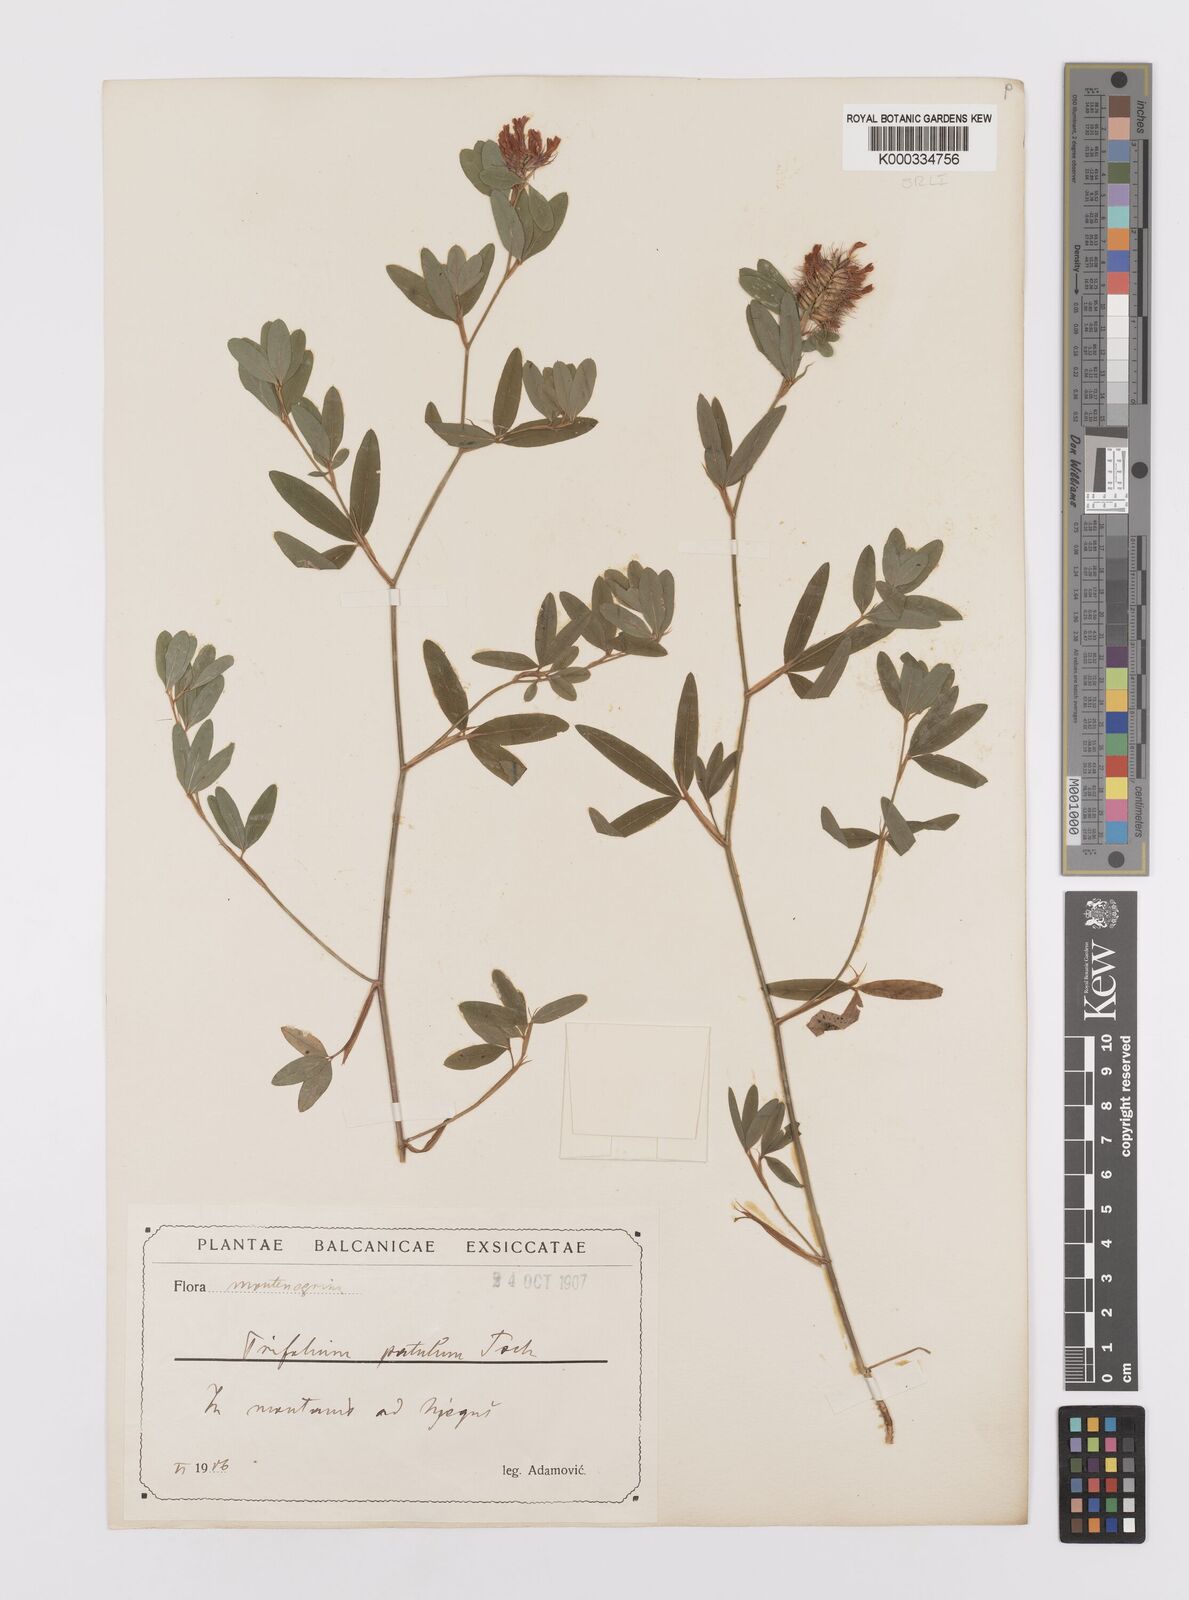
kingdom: Plantae
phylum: Tracheophyta
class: Magnoliopsida
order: Fabales
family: Fabaceae
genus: Trifolium
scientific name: Trifolium patulum
